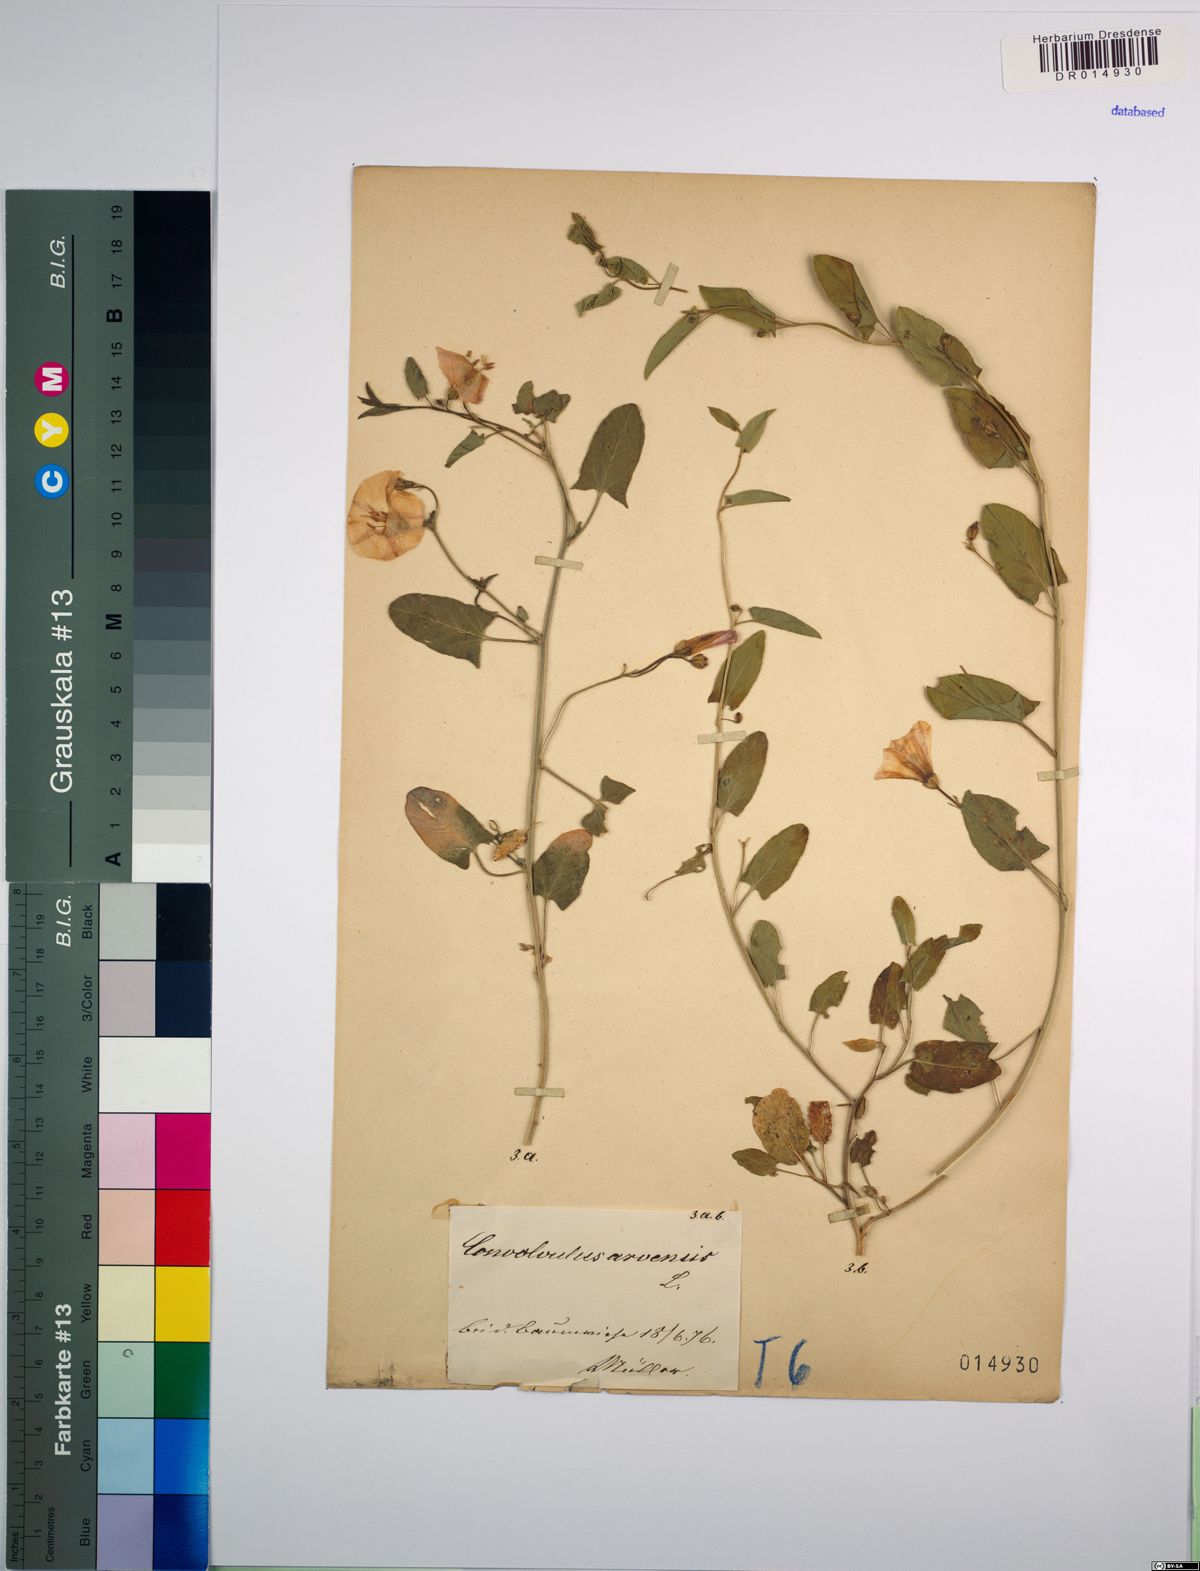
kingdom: Plantae
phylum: Tracheophyta
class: Magnoliopsida
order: Solanales
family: Convolvulaceae
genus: Convolvulus
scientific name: Convolvulus arvensis
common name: Field bindweed
